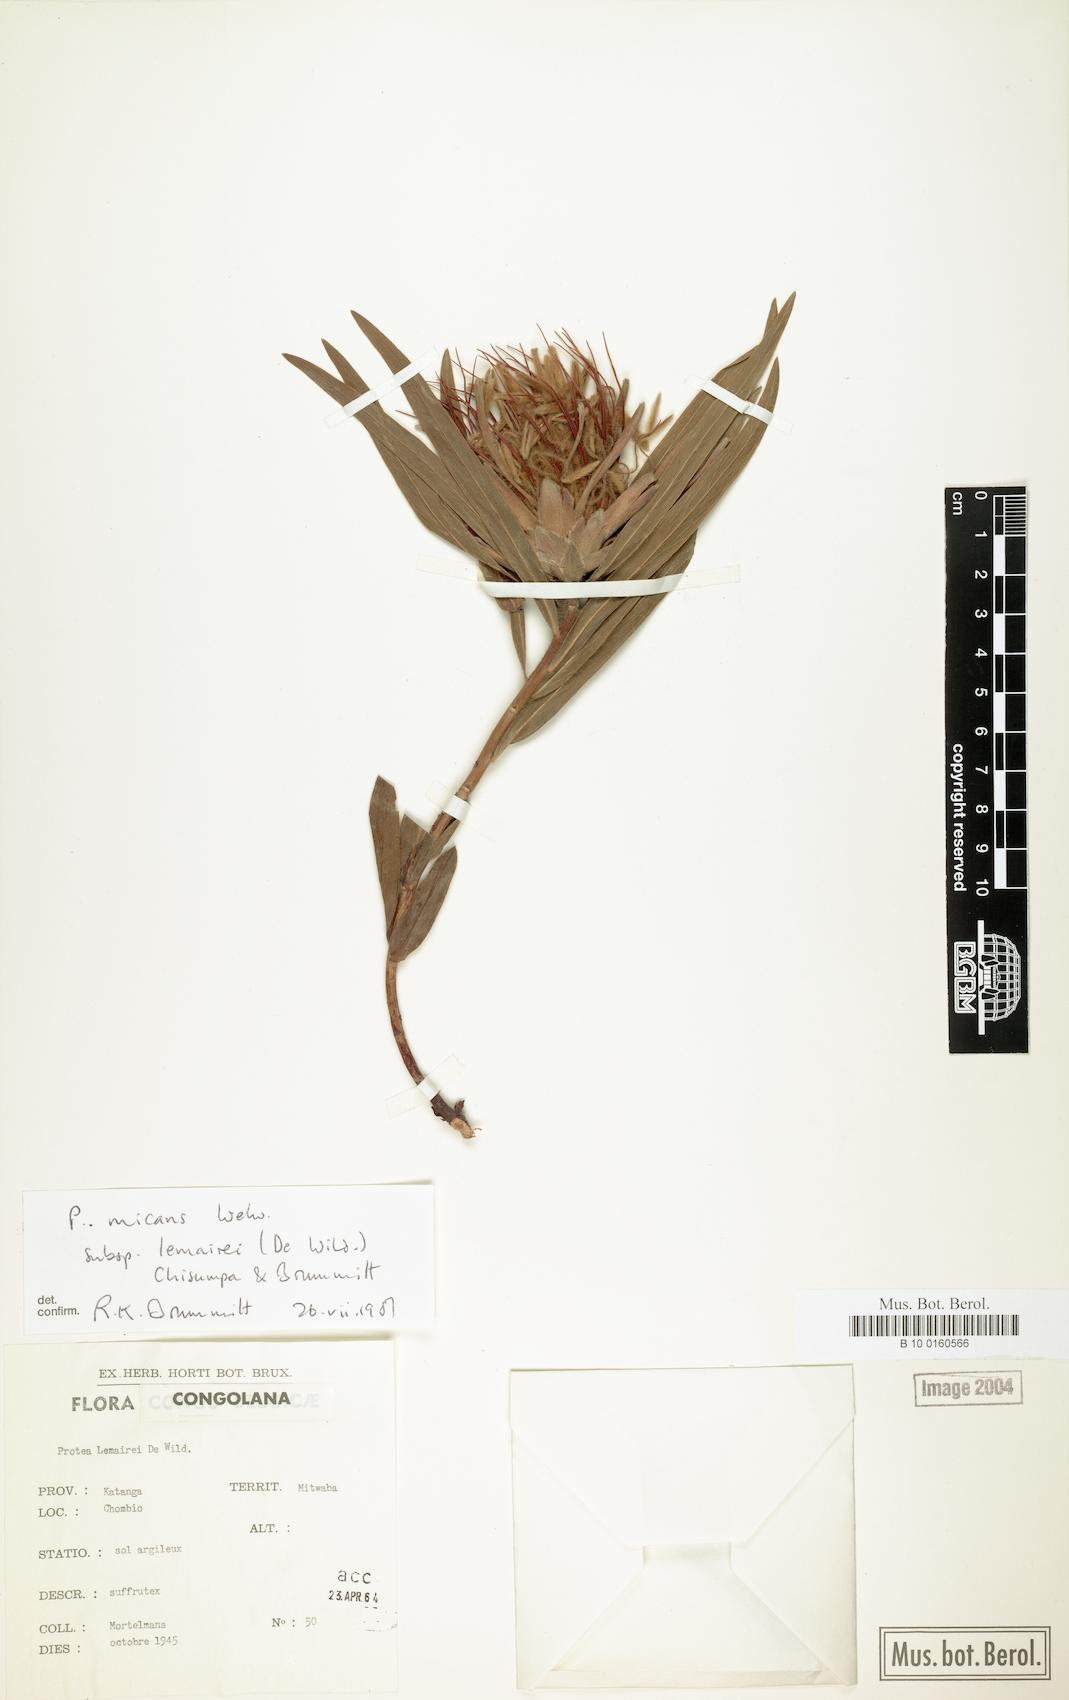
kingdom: Plantae
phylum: Tracheophyta
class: Magnoliopsida
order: Proteales
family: Proteaceae
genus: Protea
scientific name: Protea micans
